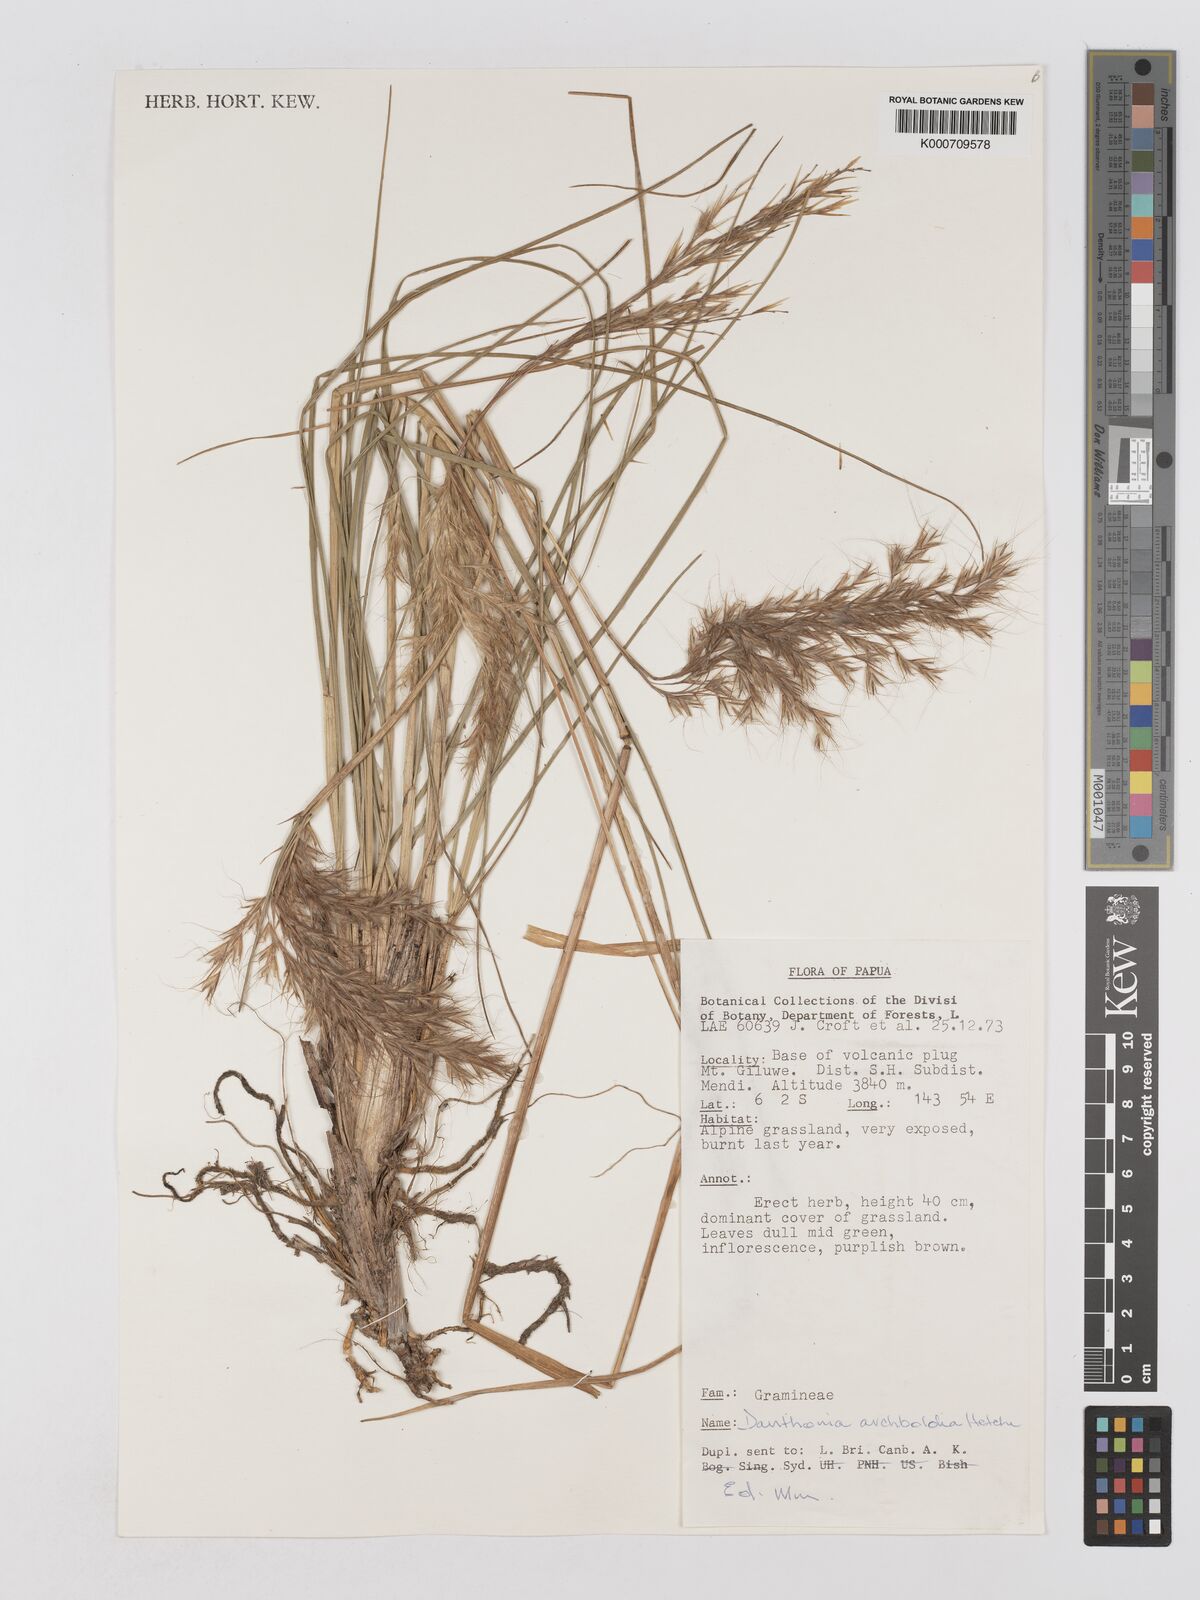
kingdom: Plantae
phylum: Tracheophyta
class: Liliopsida
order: Poales
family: Poaceae
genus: Chimaerochloa
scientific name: Chimaerochloa archboldii
